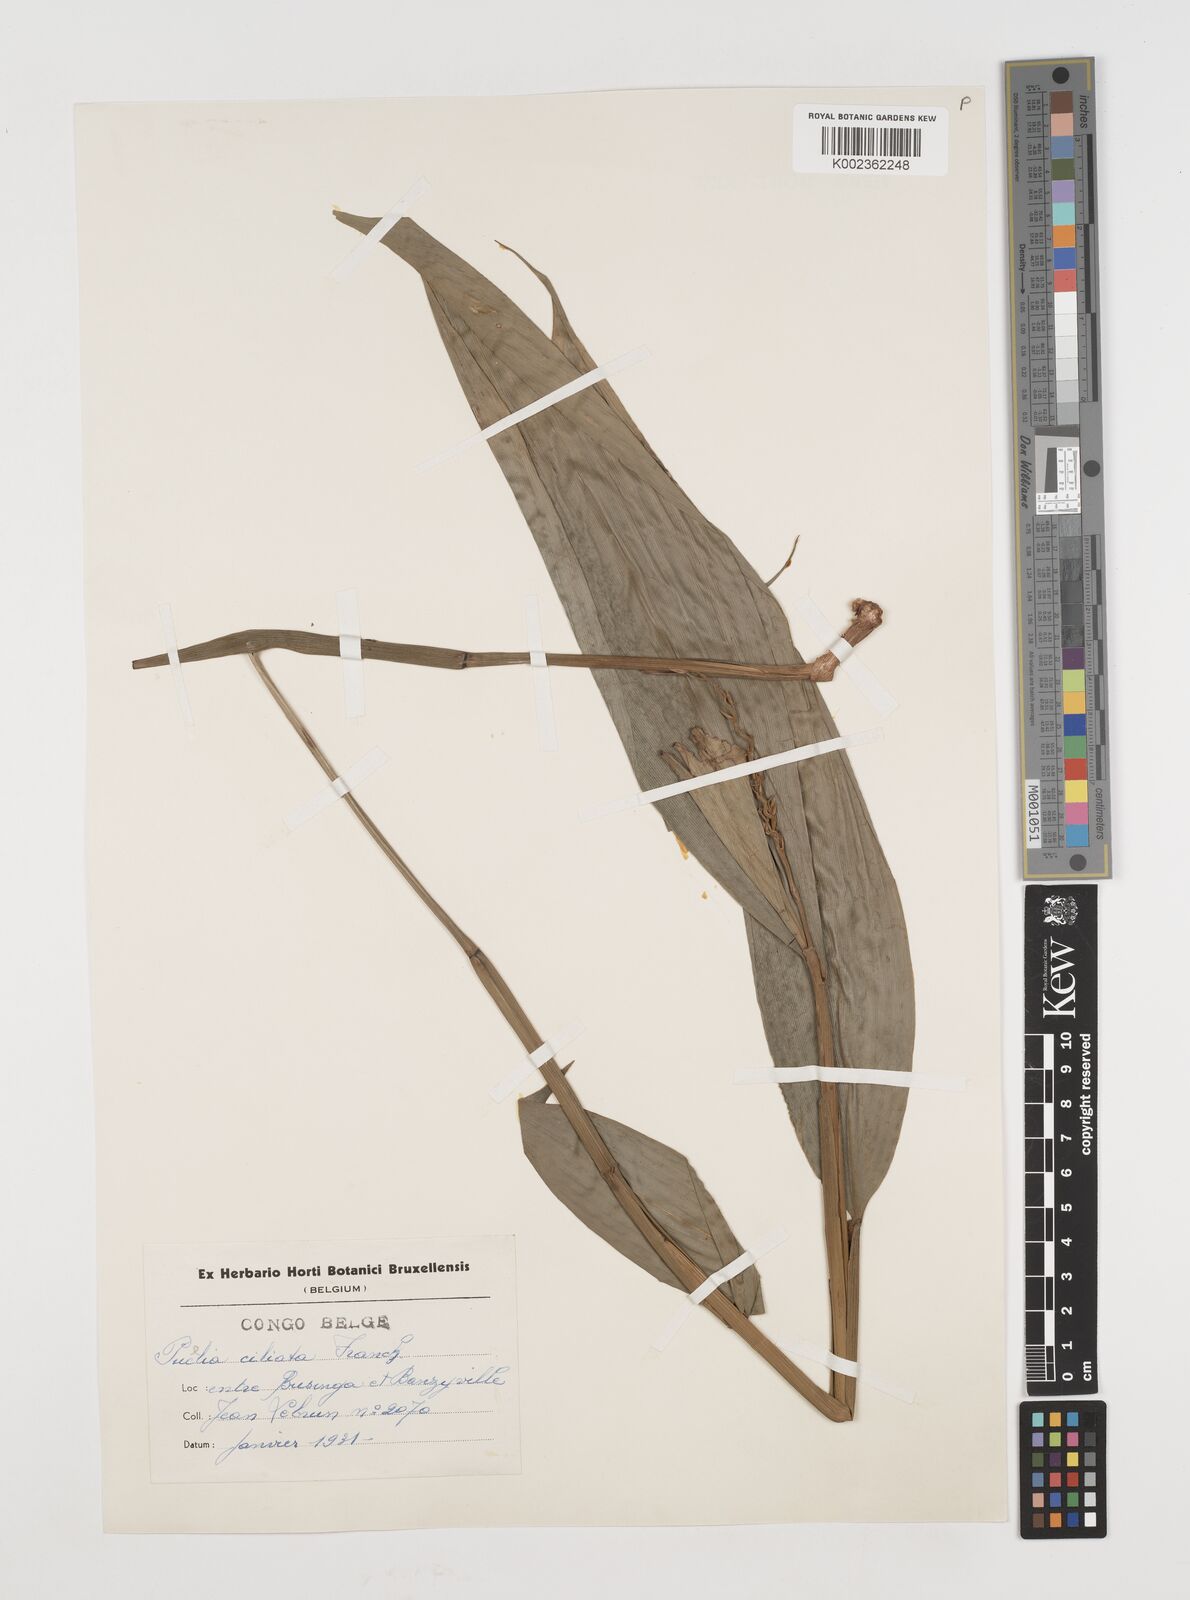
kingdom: Plantae
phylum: Tracheophyta
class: Liliopsida
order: Poales
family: Poaceae
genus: Puelia
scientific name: Puelia olyriformis
